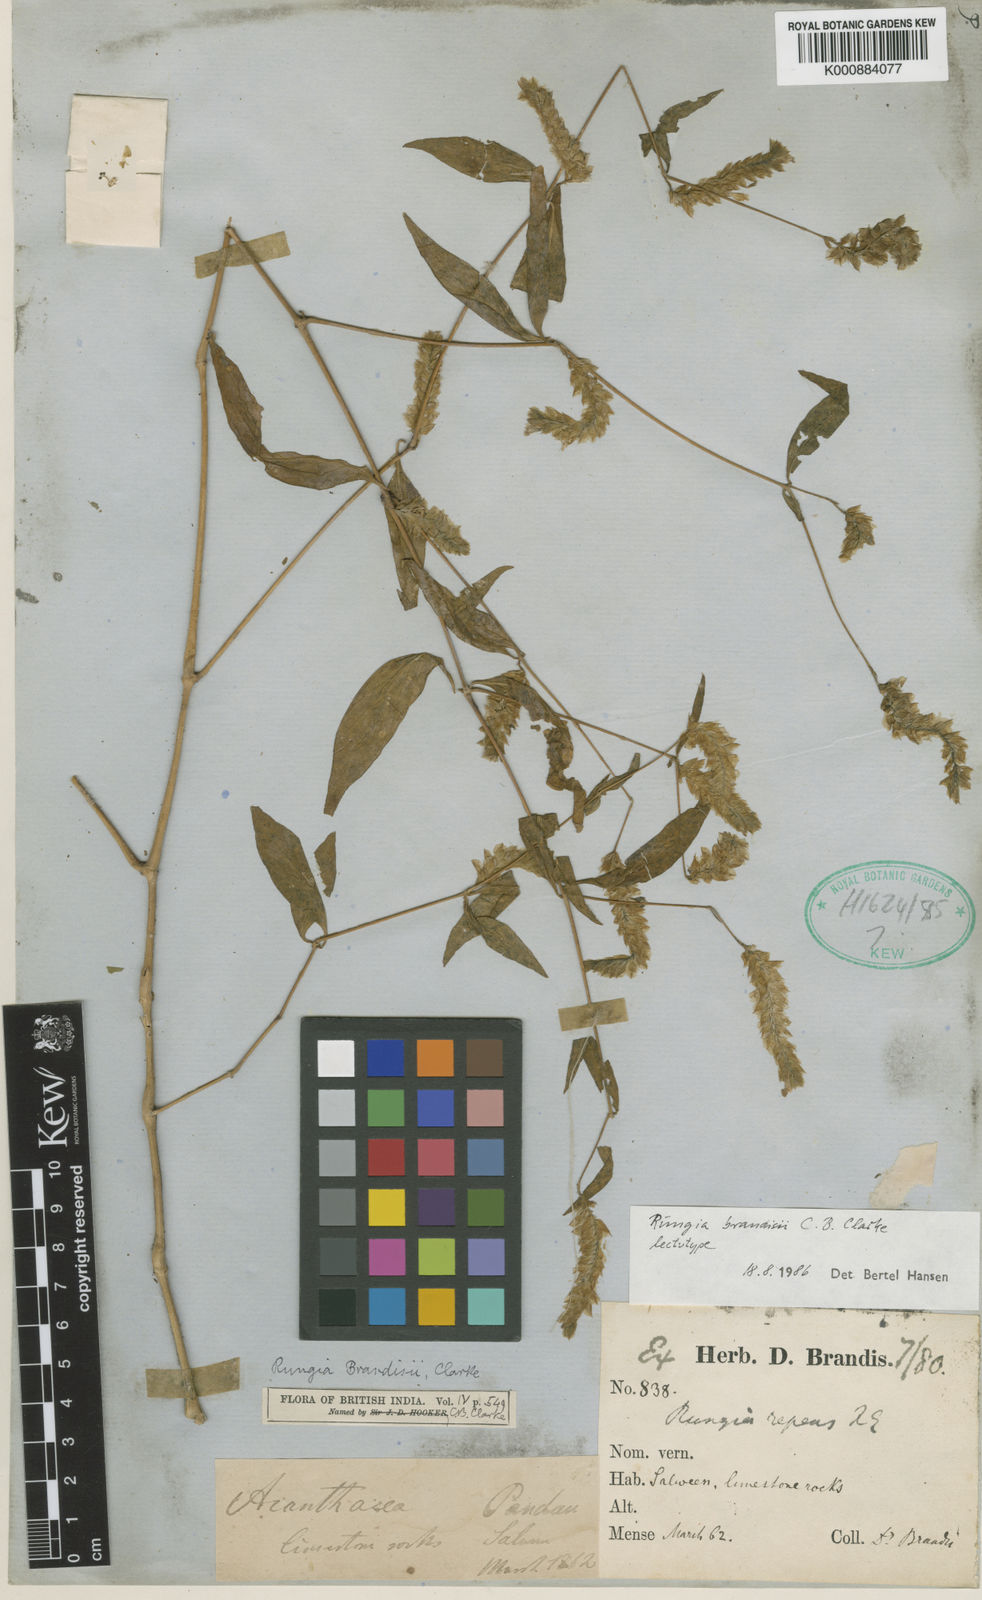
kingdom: Plantae
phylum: Tracheophyta
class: Magnoliopsida
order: Lamiales
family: Acanthaceae
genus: Justicia
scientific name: Justicia brandisii
